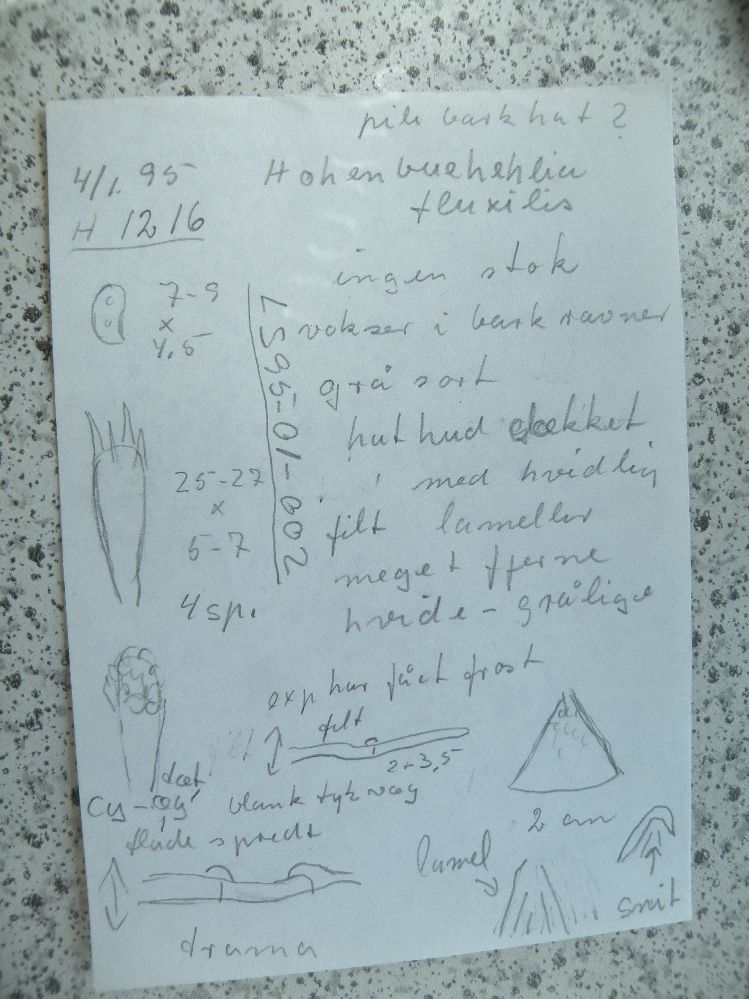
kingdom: Fungi
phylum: Basidiomycota
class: Agaricomycetes
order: Agaricales
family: Pleurotaceae
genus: Hohenbuehelia
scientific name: Hohenbuehelia unguicularis
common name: hovformet filthat
